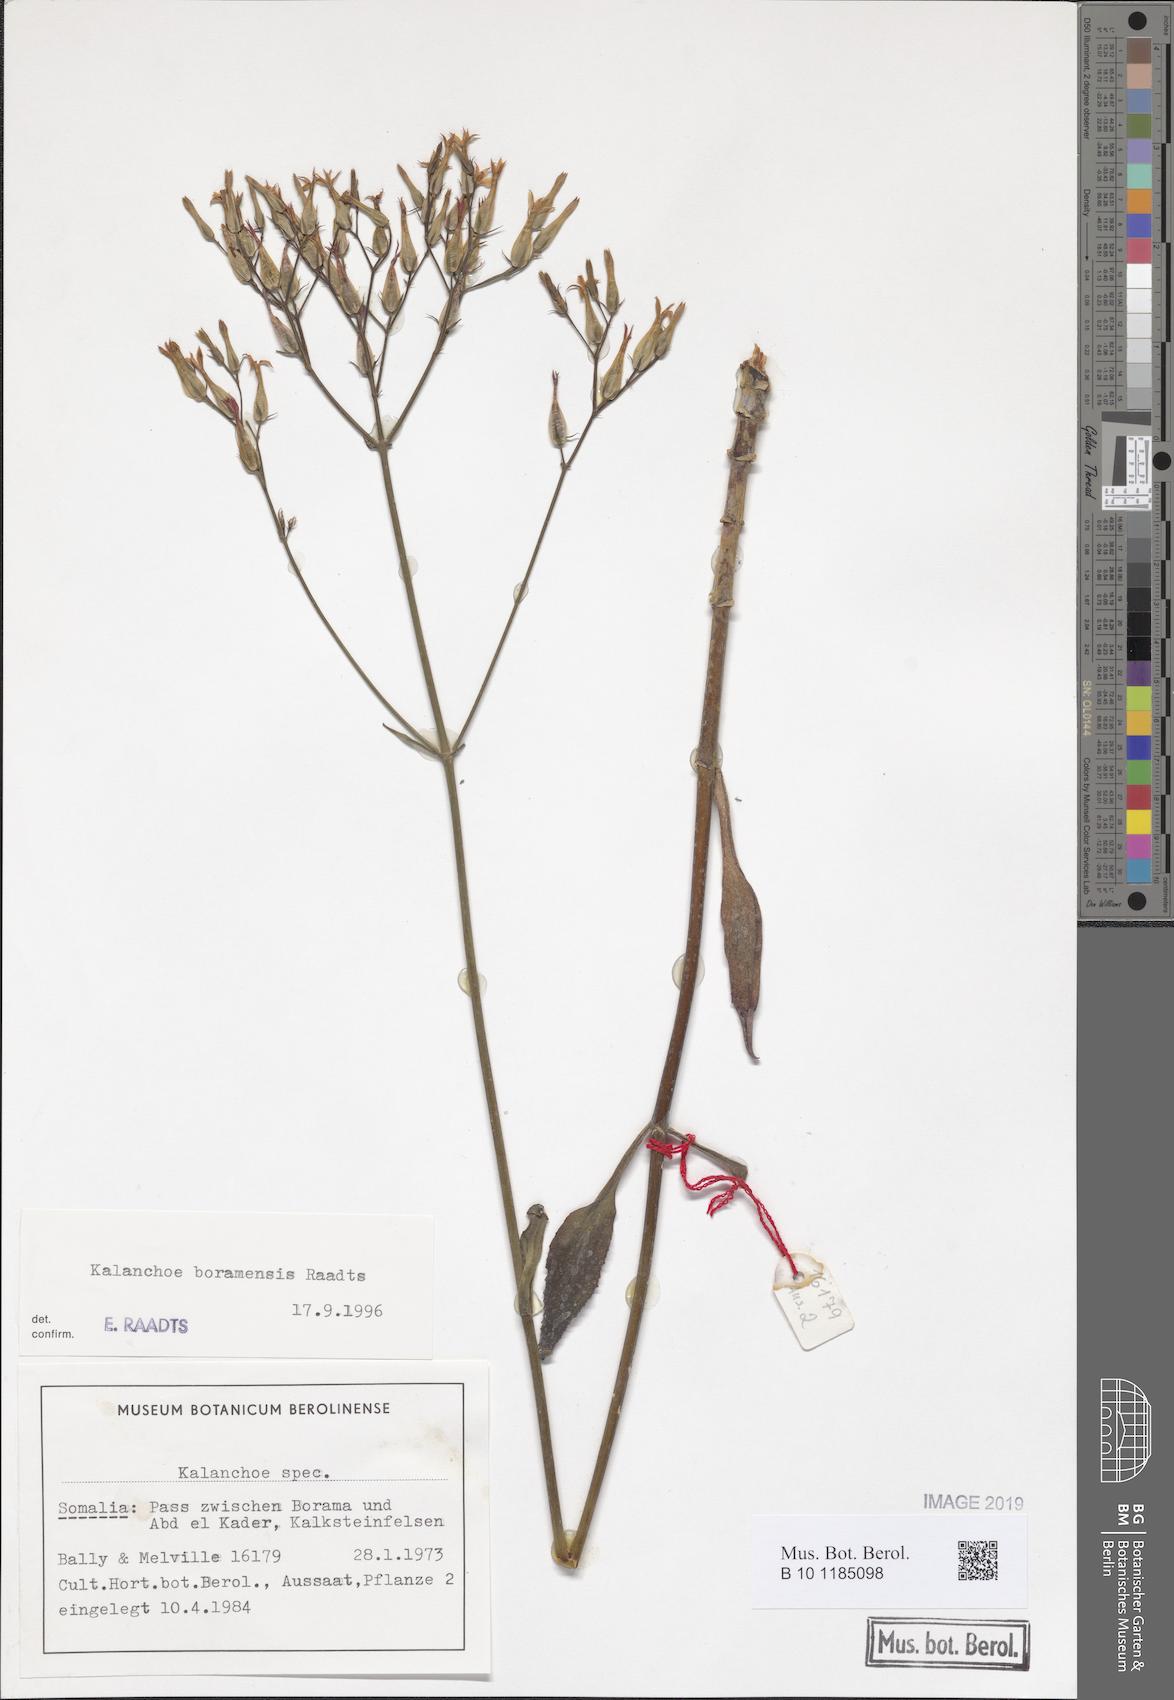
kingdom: Plantae
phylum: Tracheophyta
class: Magnoliopsida
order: Saxifragales
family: Crassulaceae
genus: Kalanchoe
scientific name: Kalanchoe
